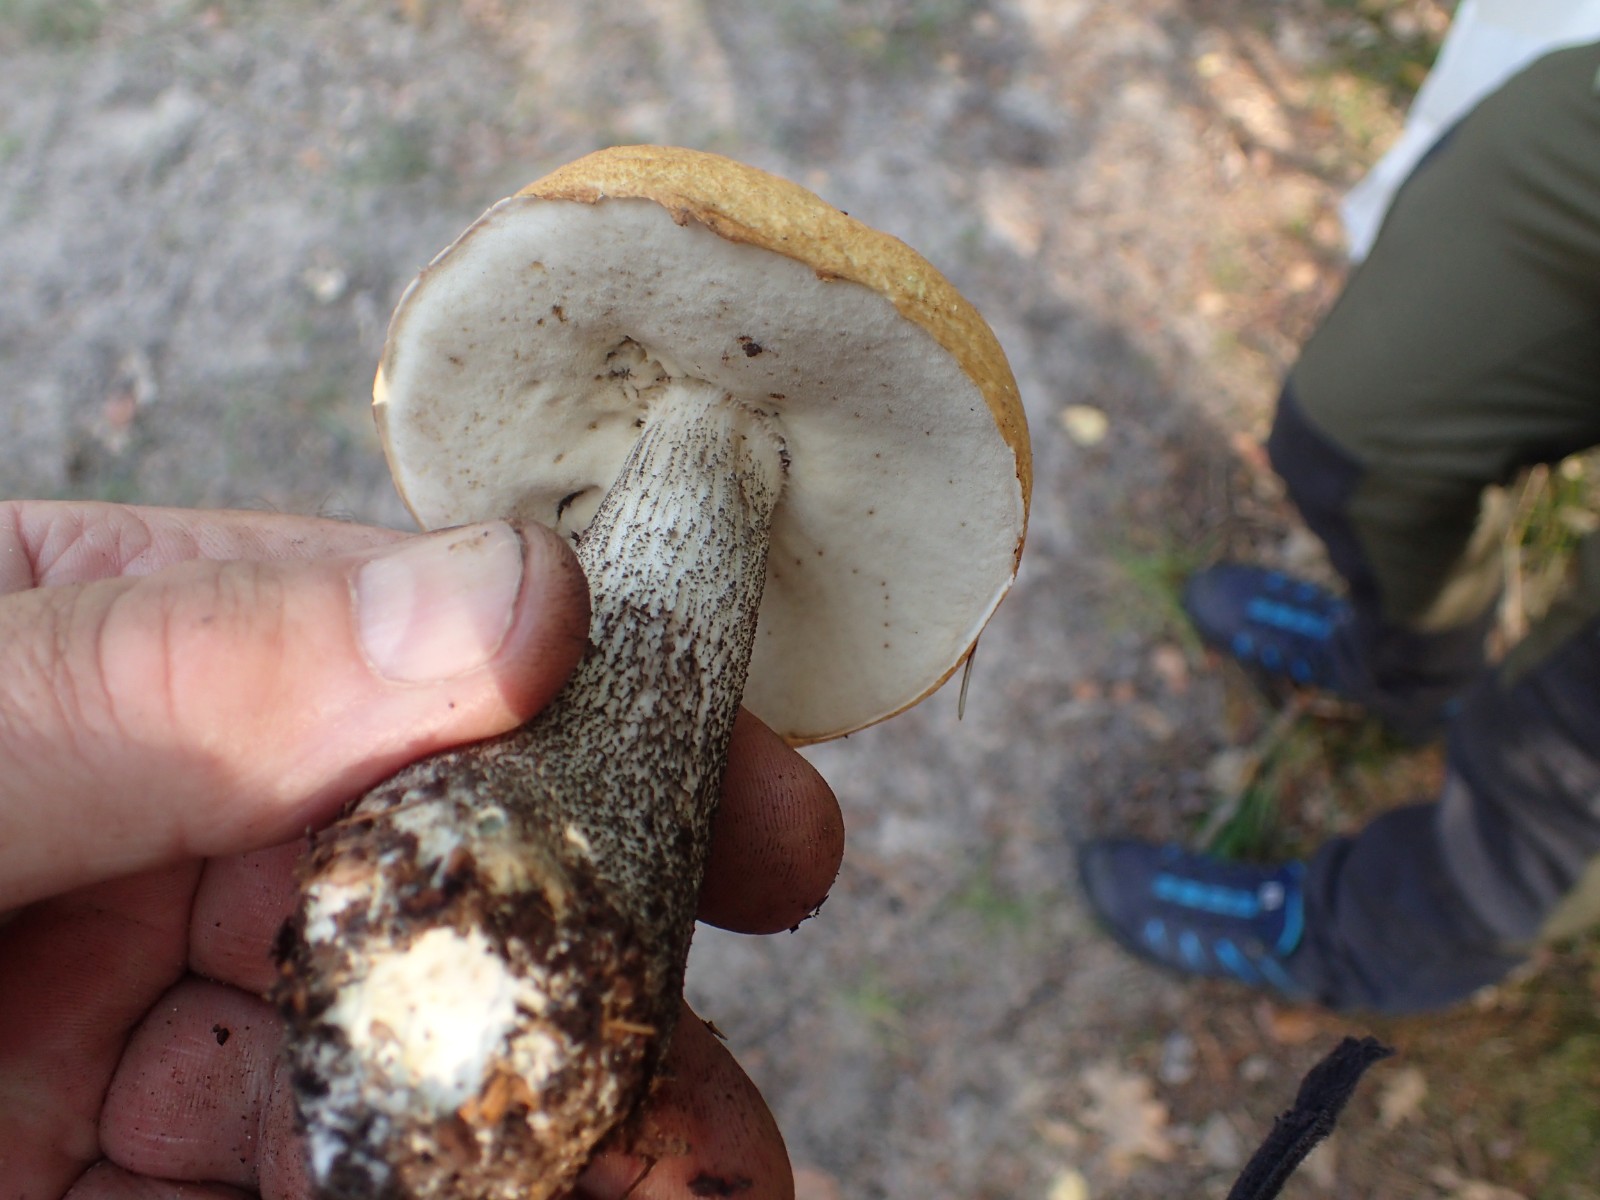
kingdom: Fungi
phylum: Basidiomycota
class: Agaricomycetes
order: Boletales
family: Boletaceae
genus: Leccinum
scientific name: Leccinum versipelle
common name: orange skælrørhat
